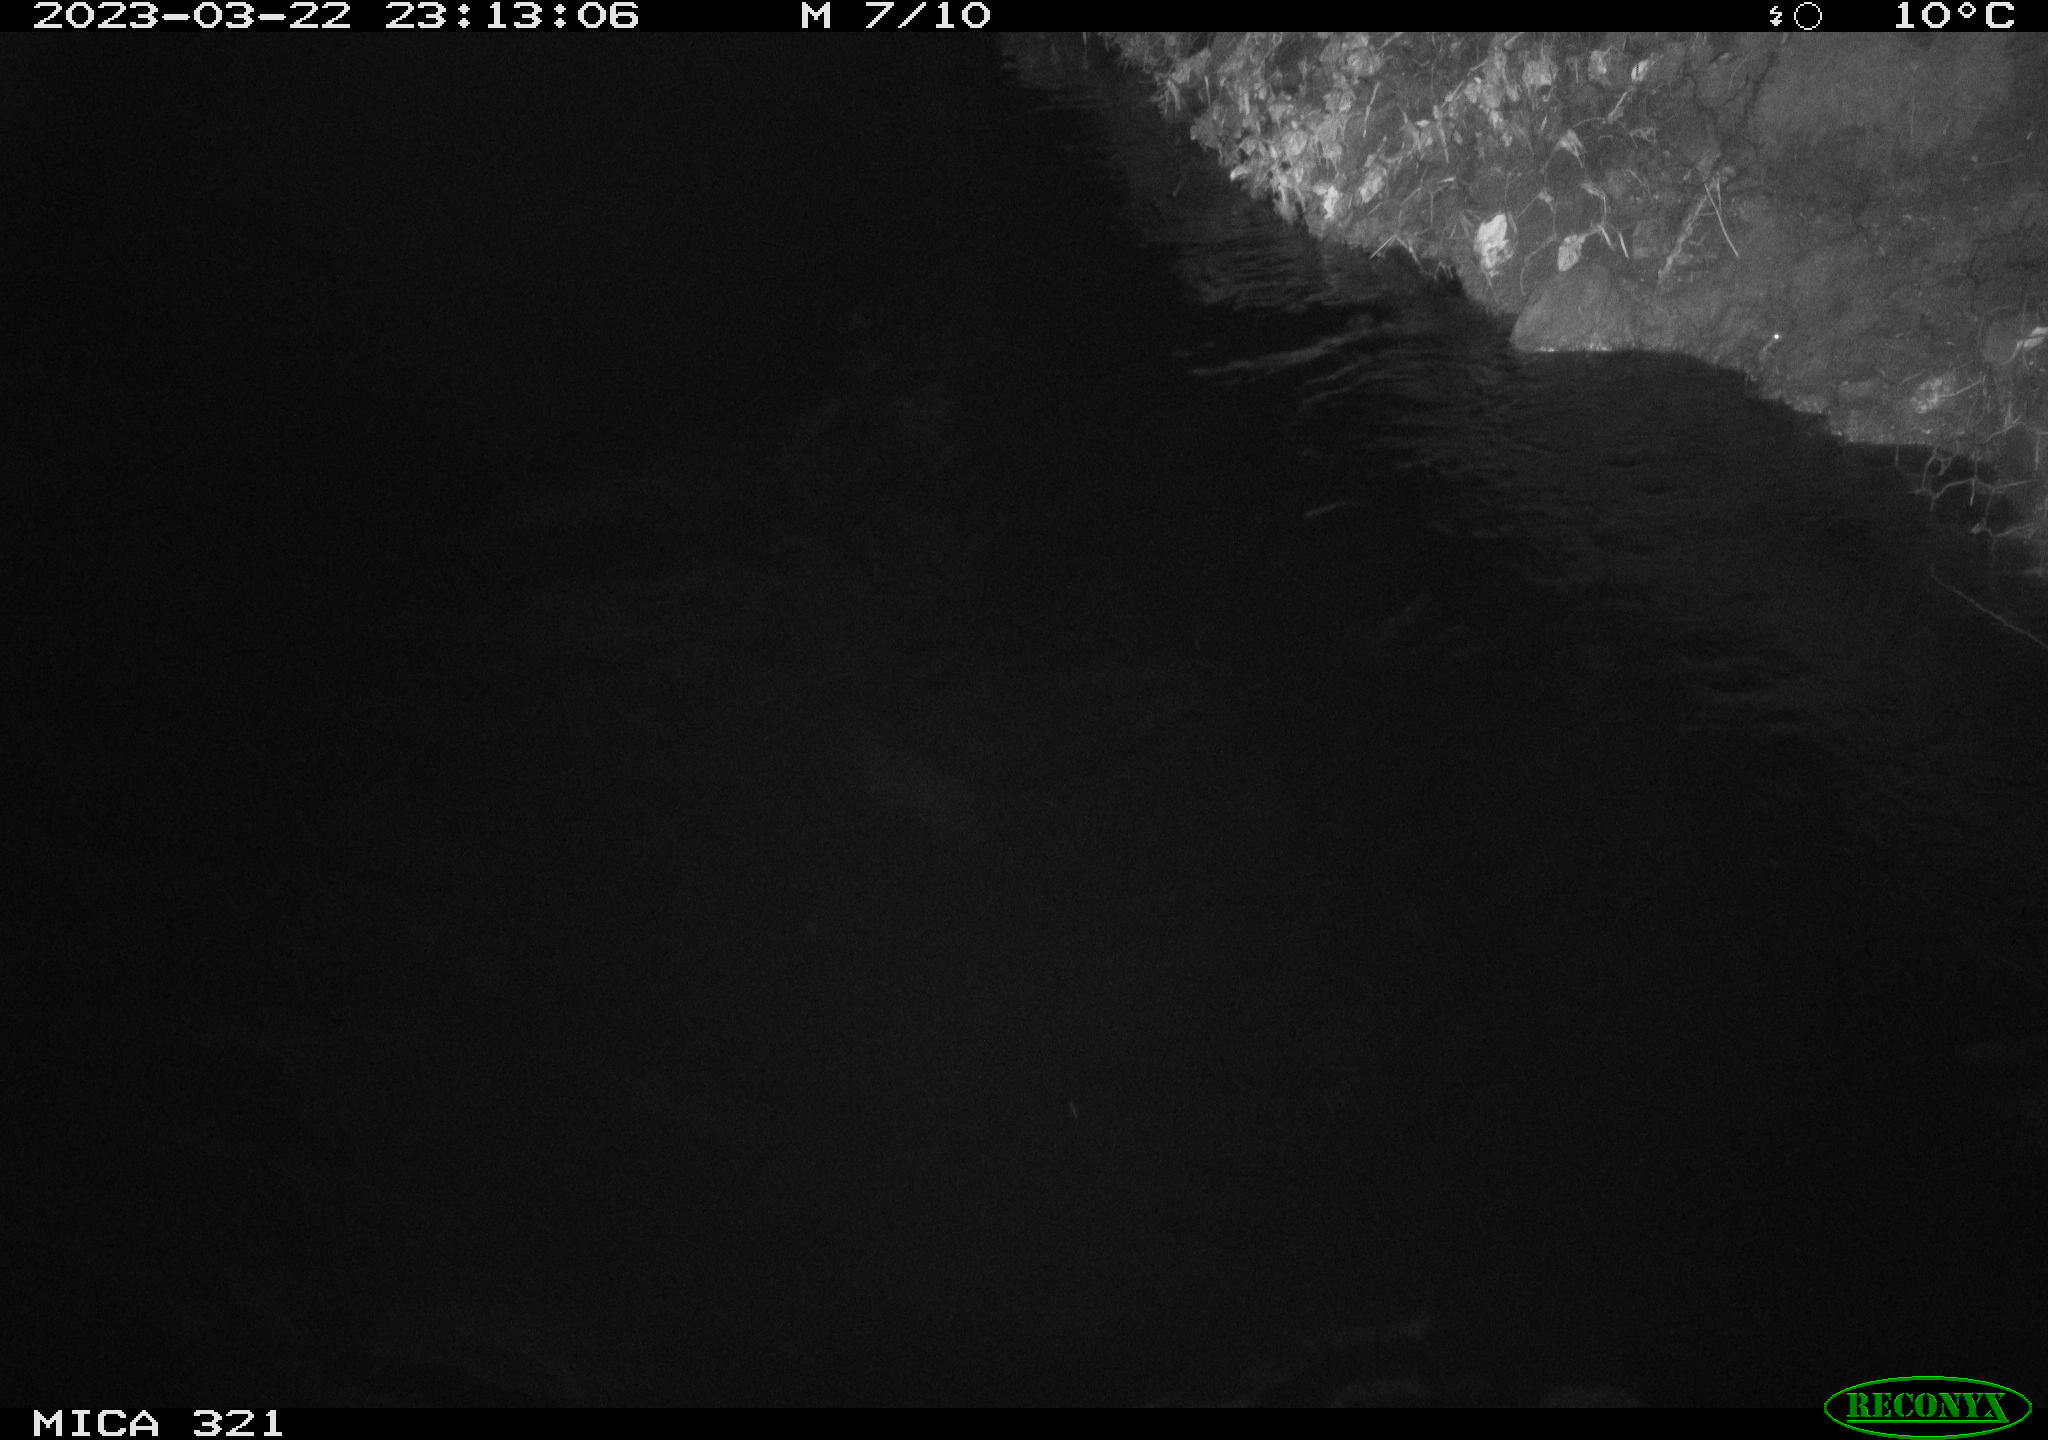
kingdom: Animalia
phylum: Chordata
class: Aves
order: Anseriformes
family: Anatidae
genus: Anas
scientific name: Anas
